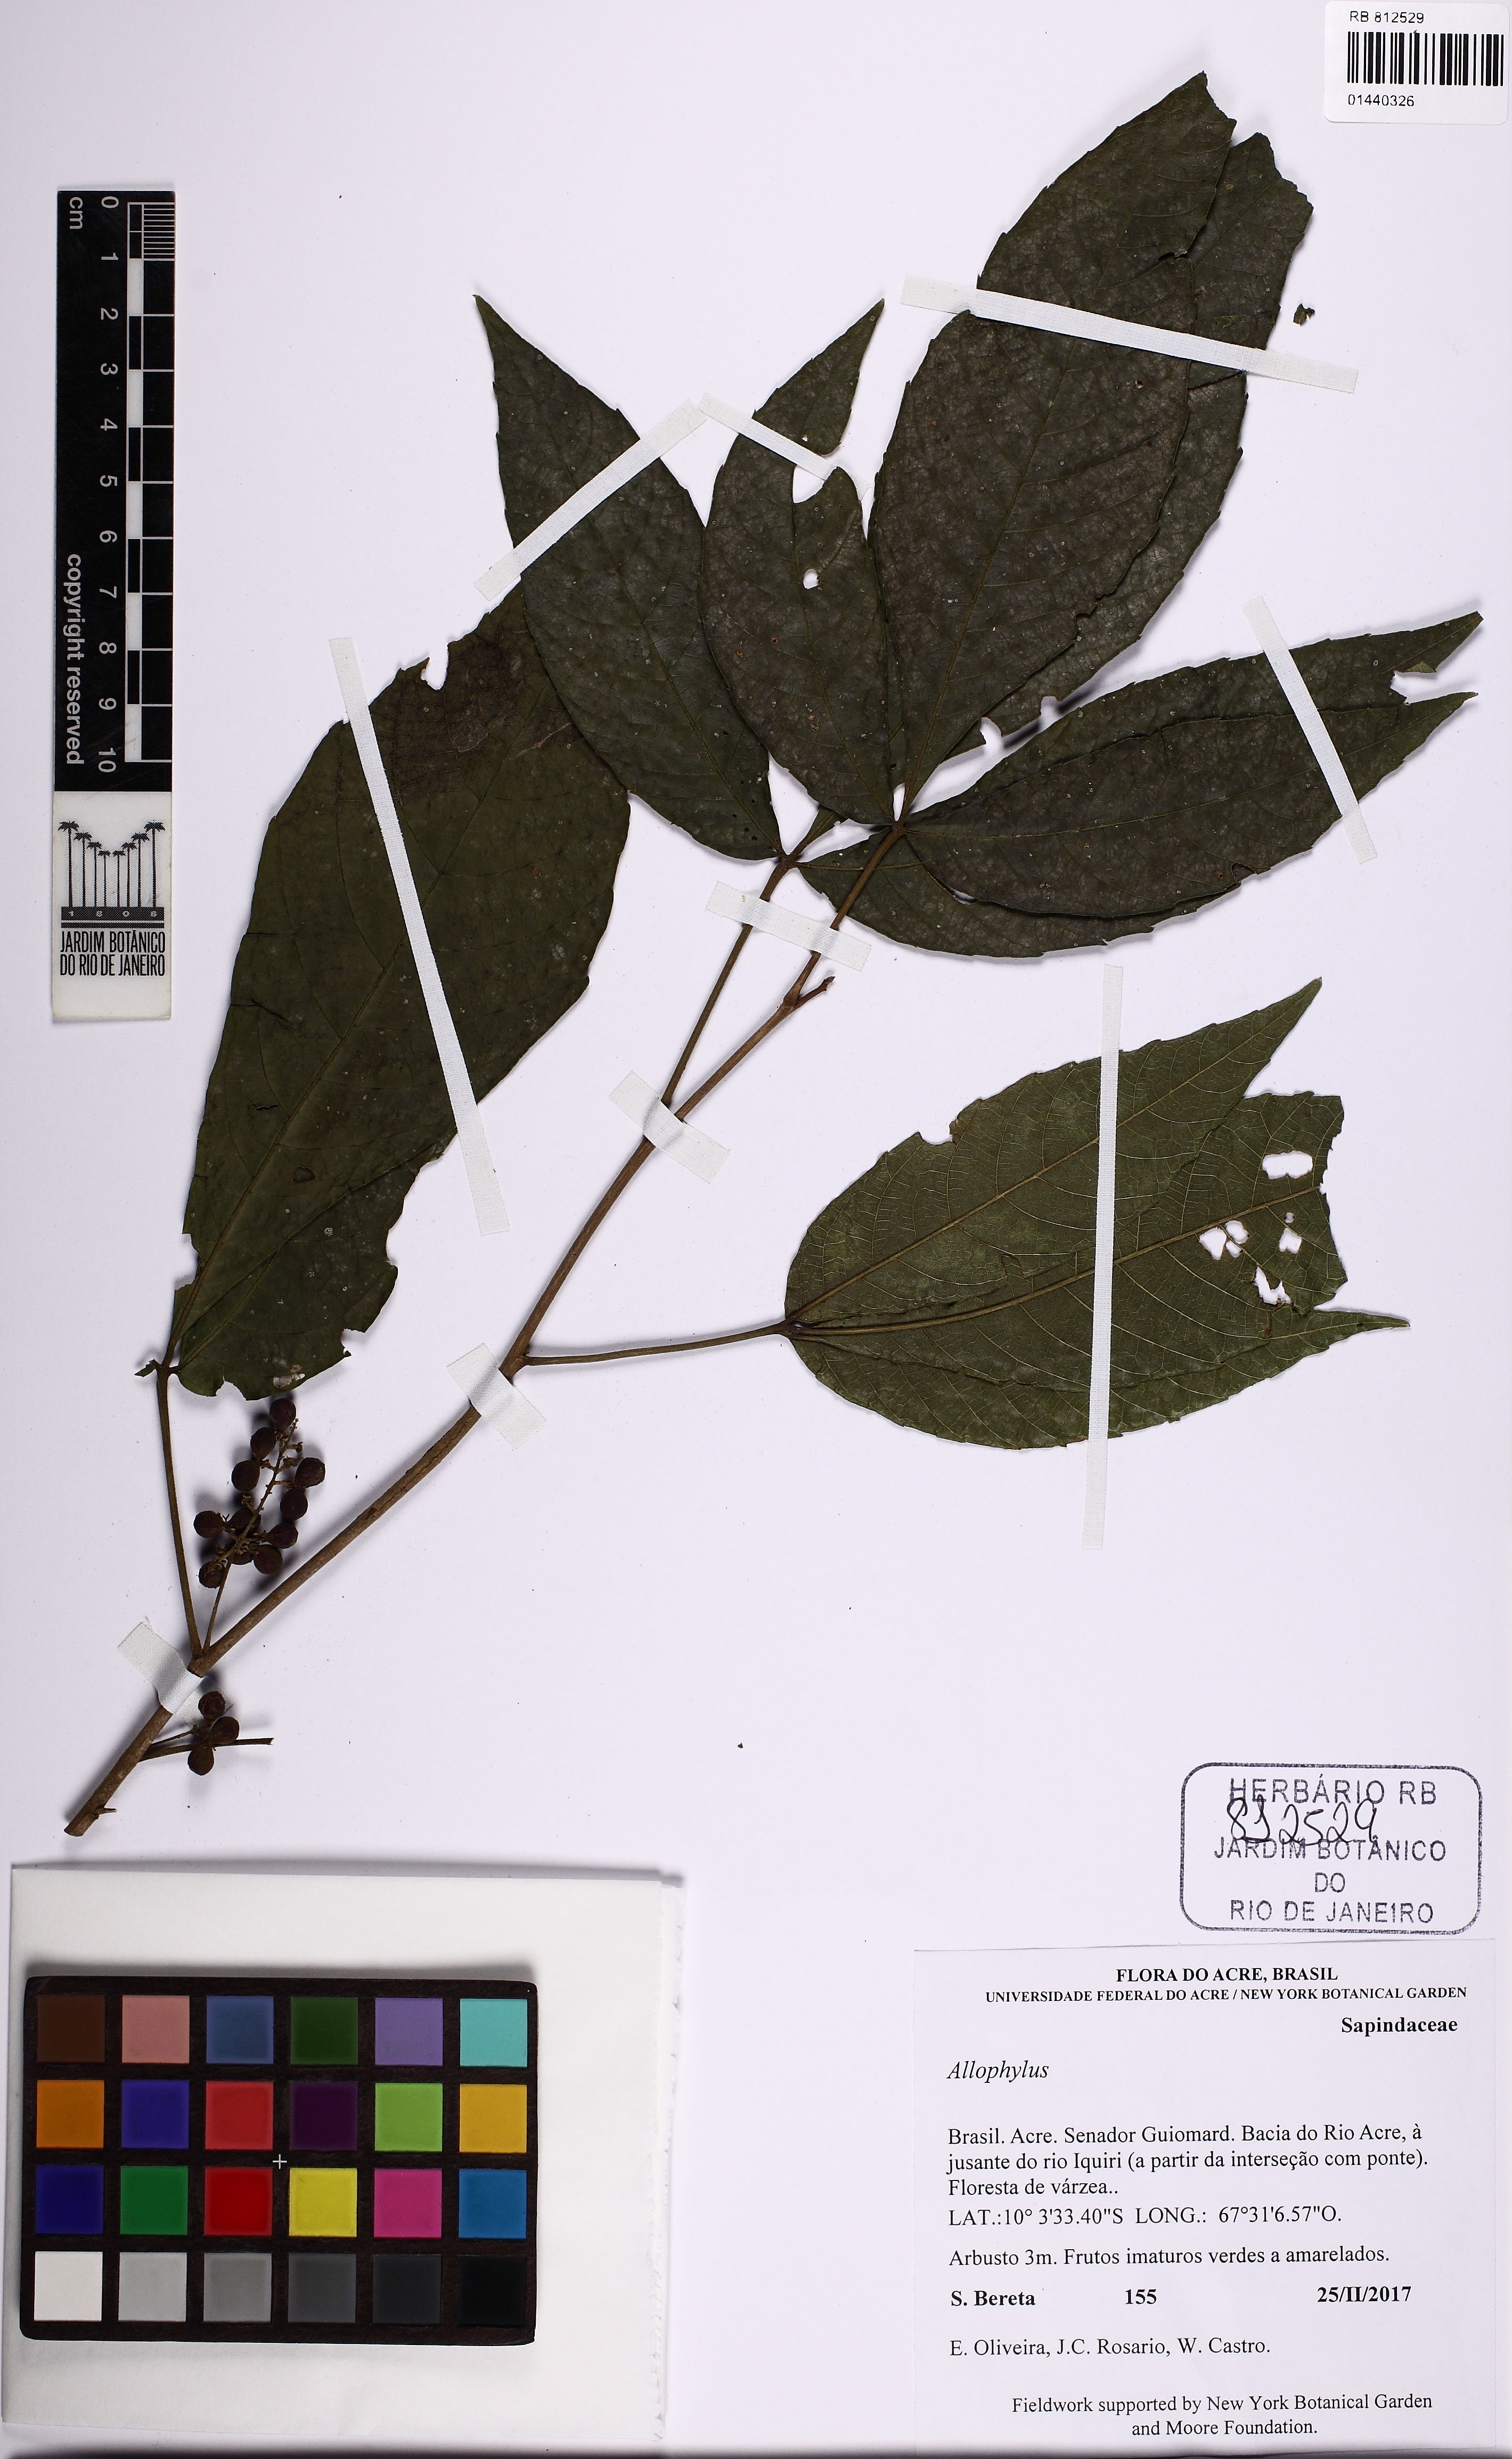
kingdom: Plantae
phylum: Tracheophyta
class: Magnoliopsida
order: Sapindales
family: Sapindaceae
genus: Allophylus
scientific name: Allophylus
